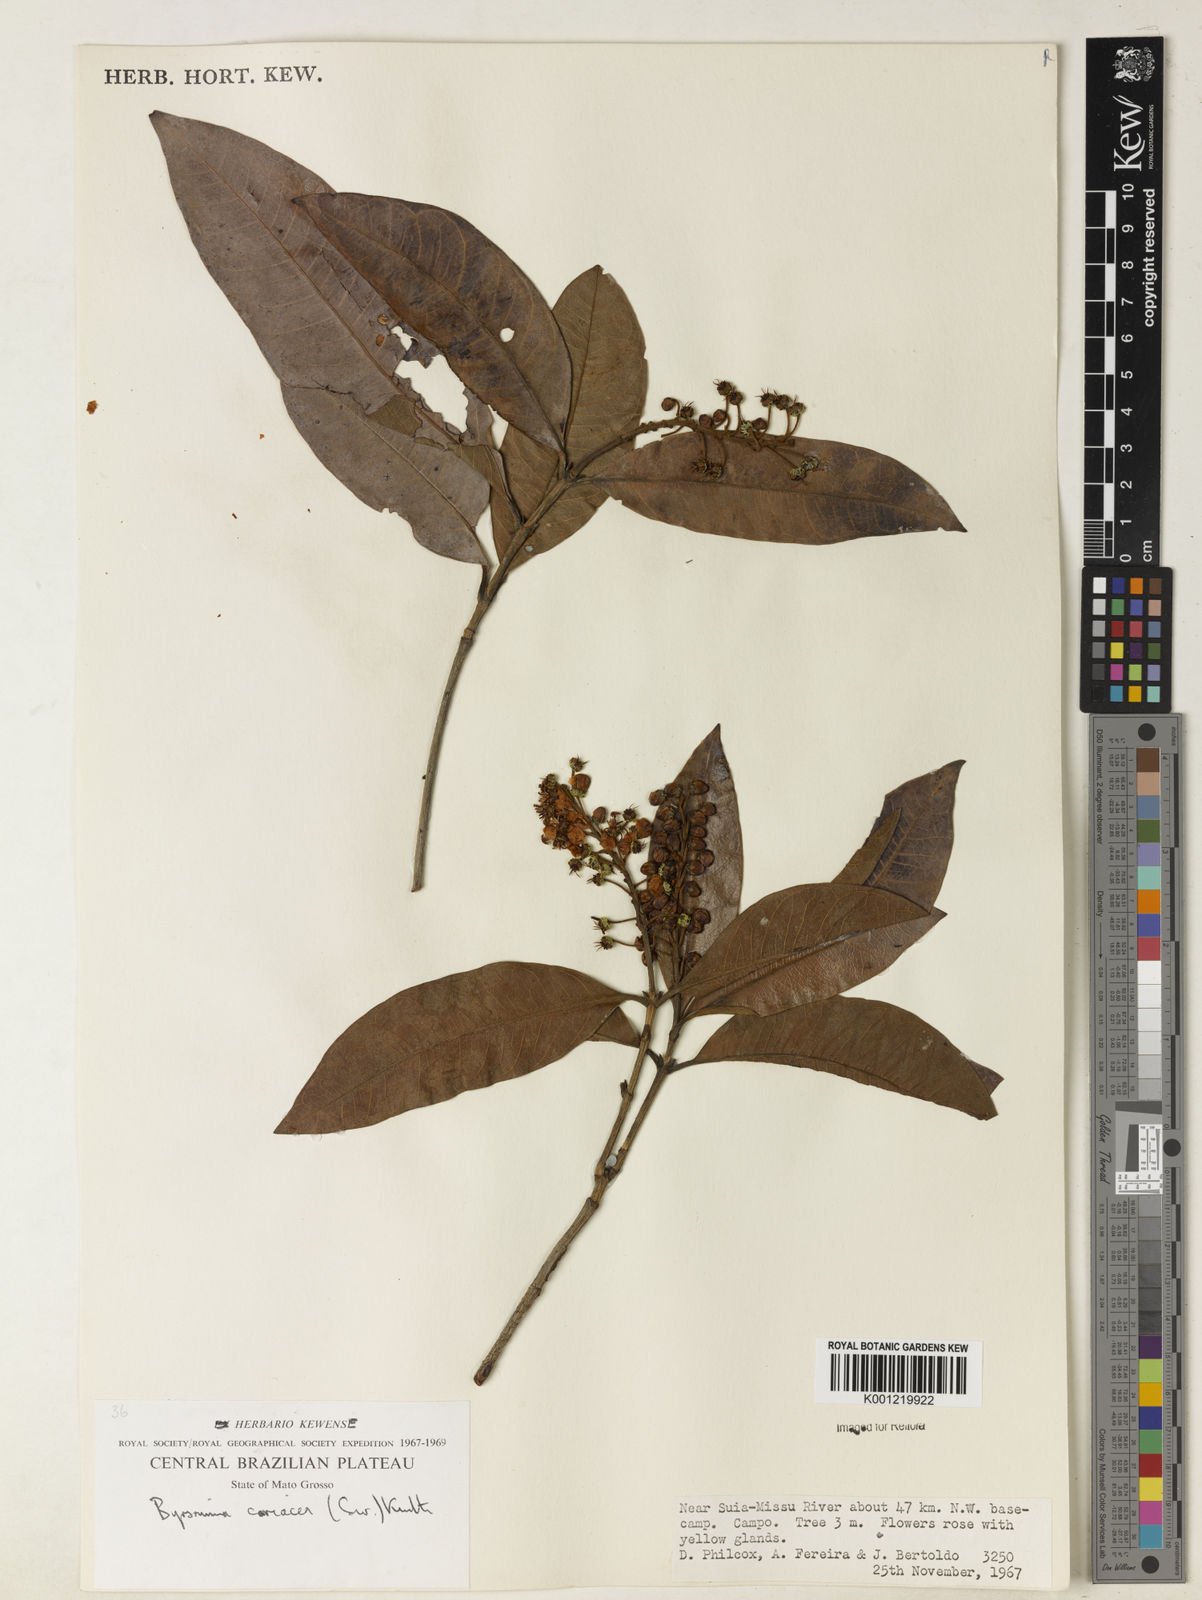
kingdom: Plantae
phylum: Tracheophyta
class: Magnoliopsida
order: Malpighiales
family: Malpighiaceae
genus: Byrsonima
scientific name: Byrsonima
